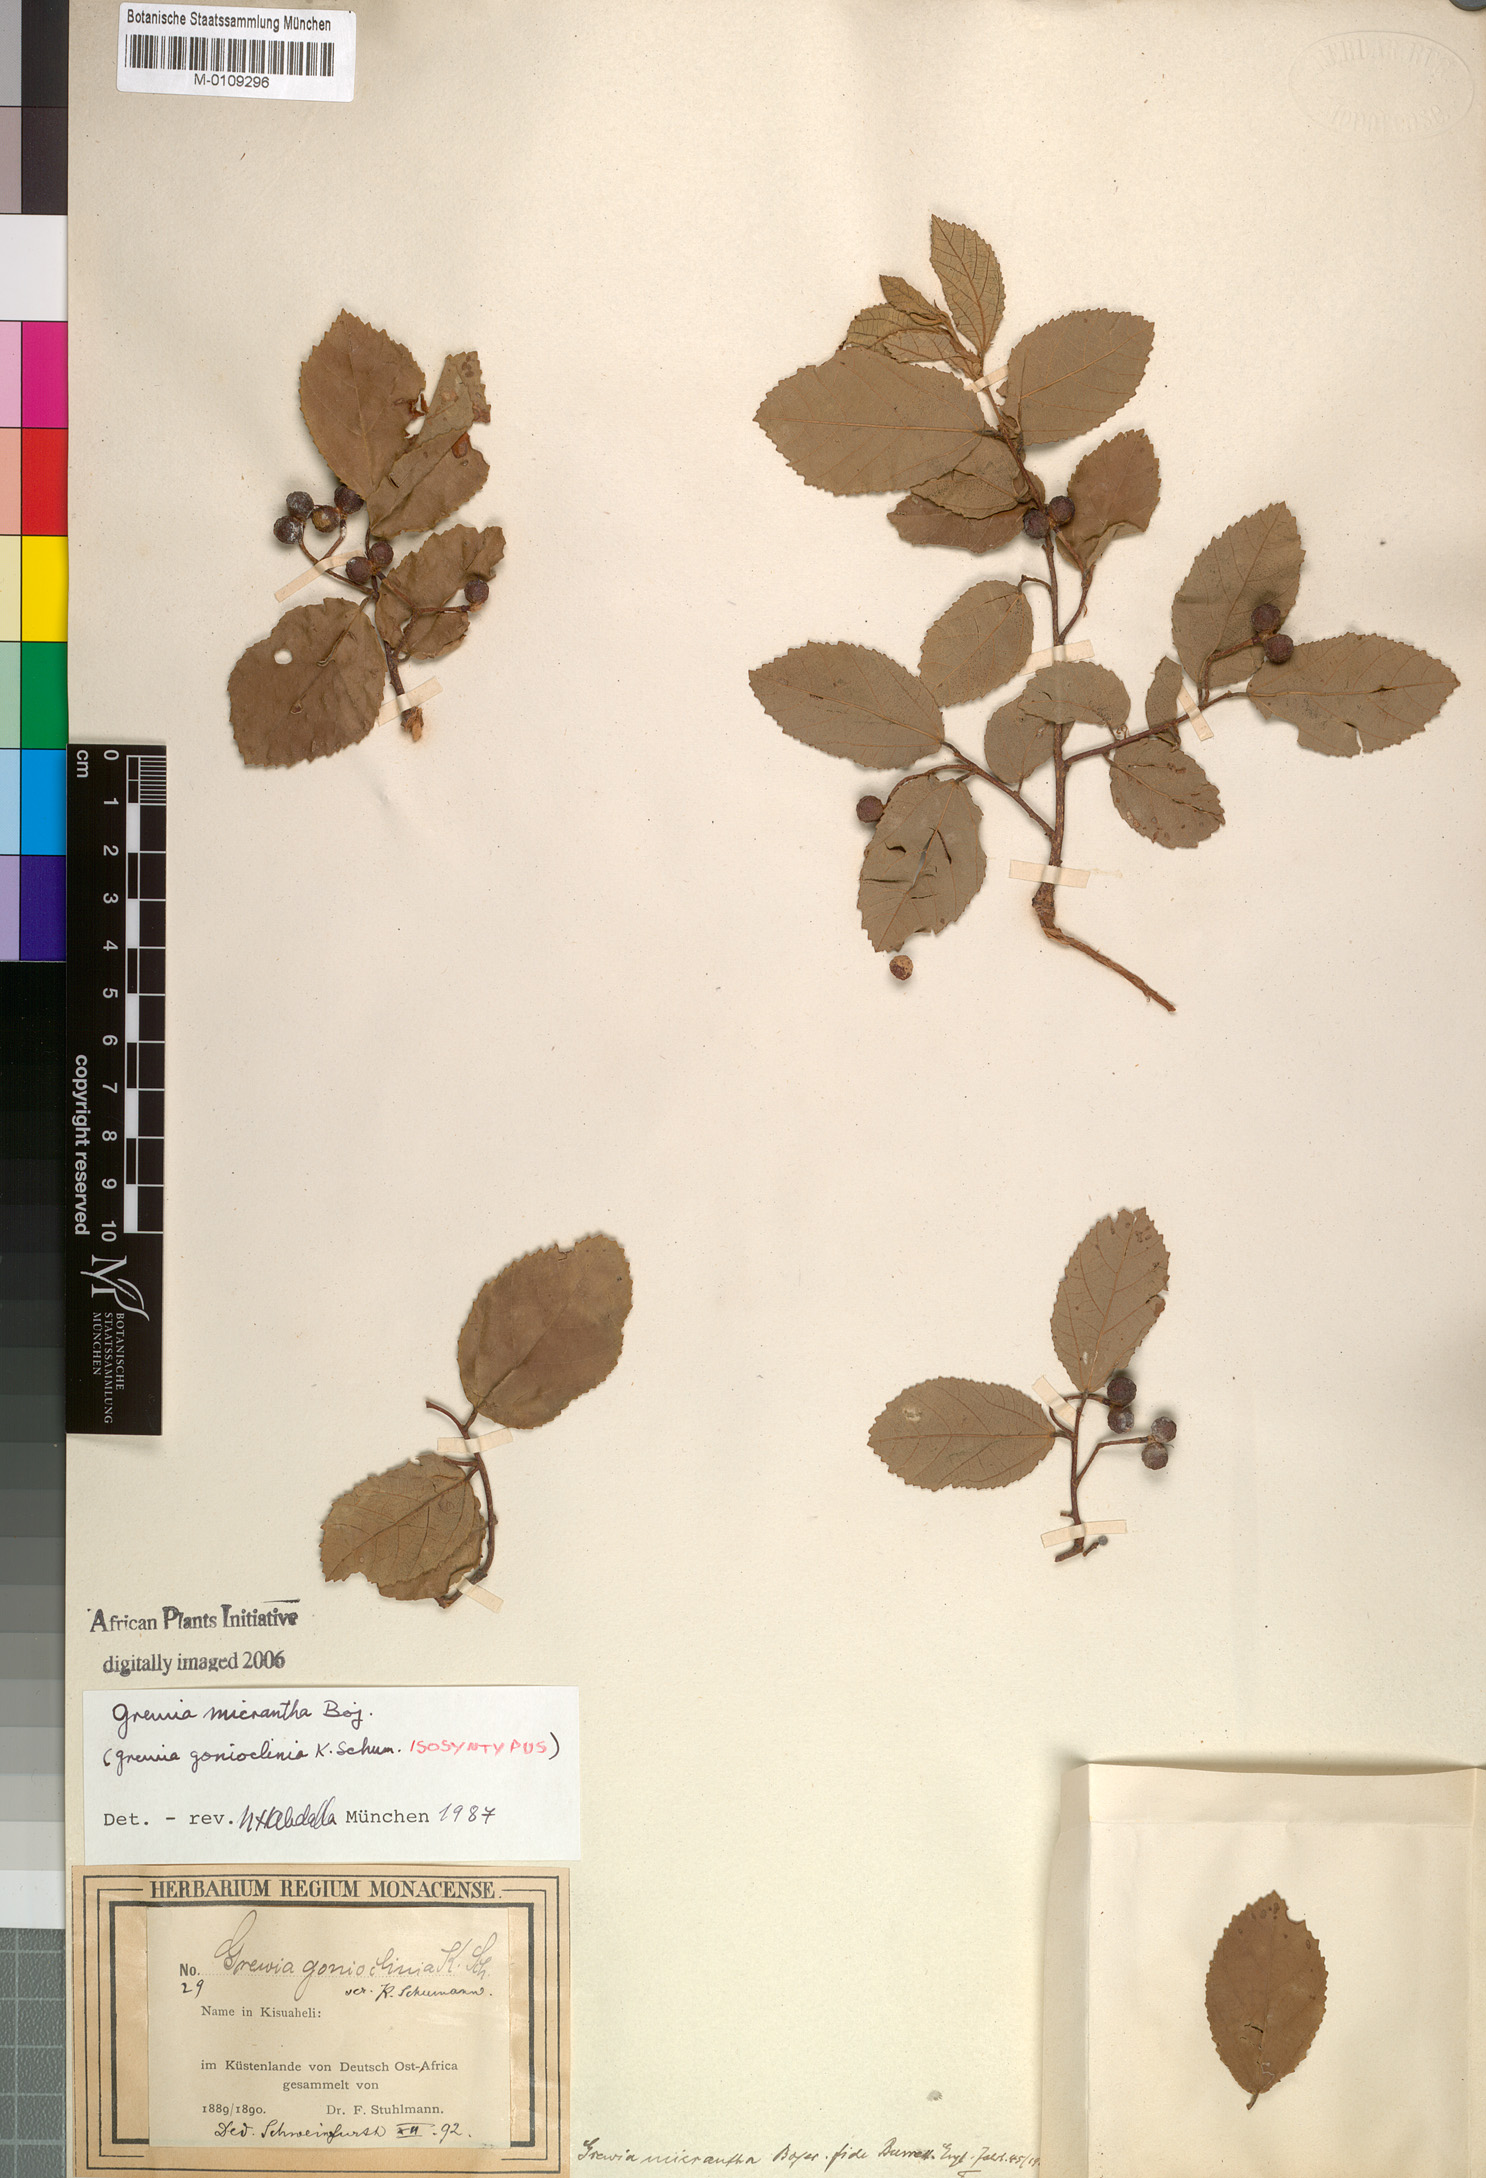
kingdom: Plantae
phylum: Tracheophyta
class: Magnoliopsida
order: Malvales
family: Malvaceae
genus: Grewia
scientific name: Grewia woodiana
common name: Golden fruit raisin
